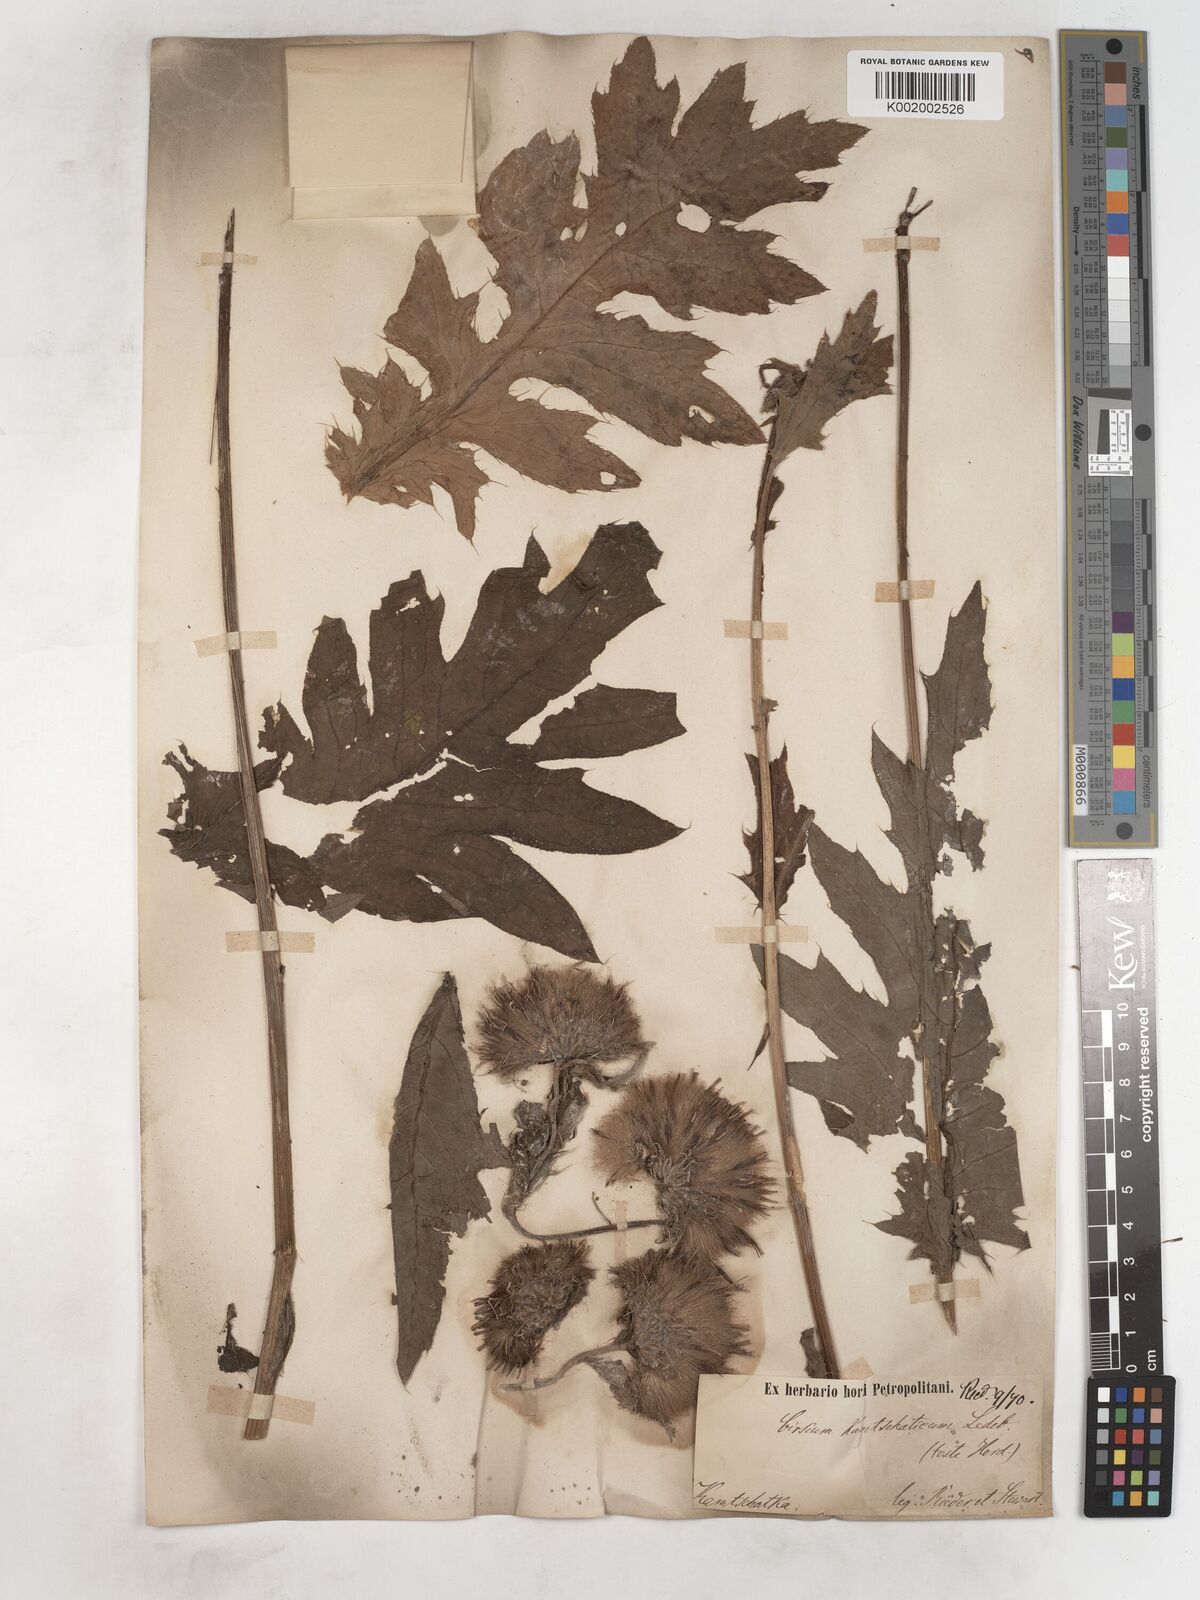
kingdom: Plantae
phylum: Tracheophyta
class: Magnoliopsida
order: Asterales
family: Asteraceae
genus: Cirsium
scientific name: Cirsium kamtschaticum
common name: Kamchatka thistle
